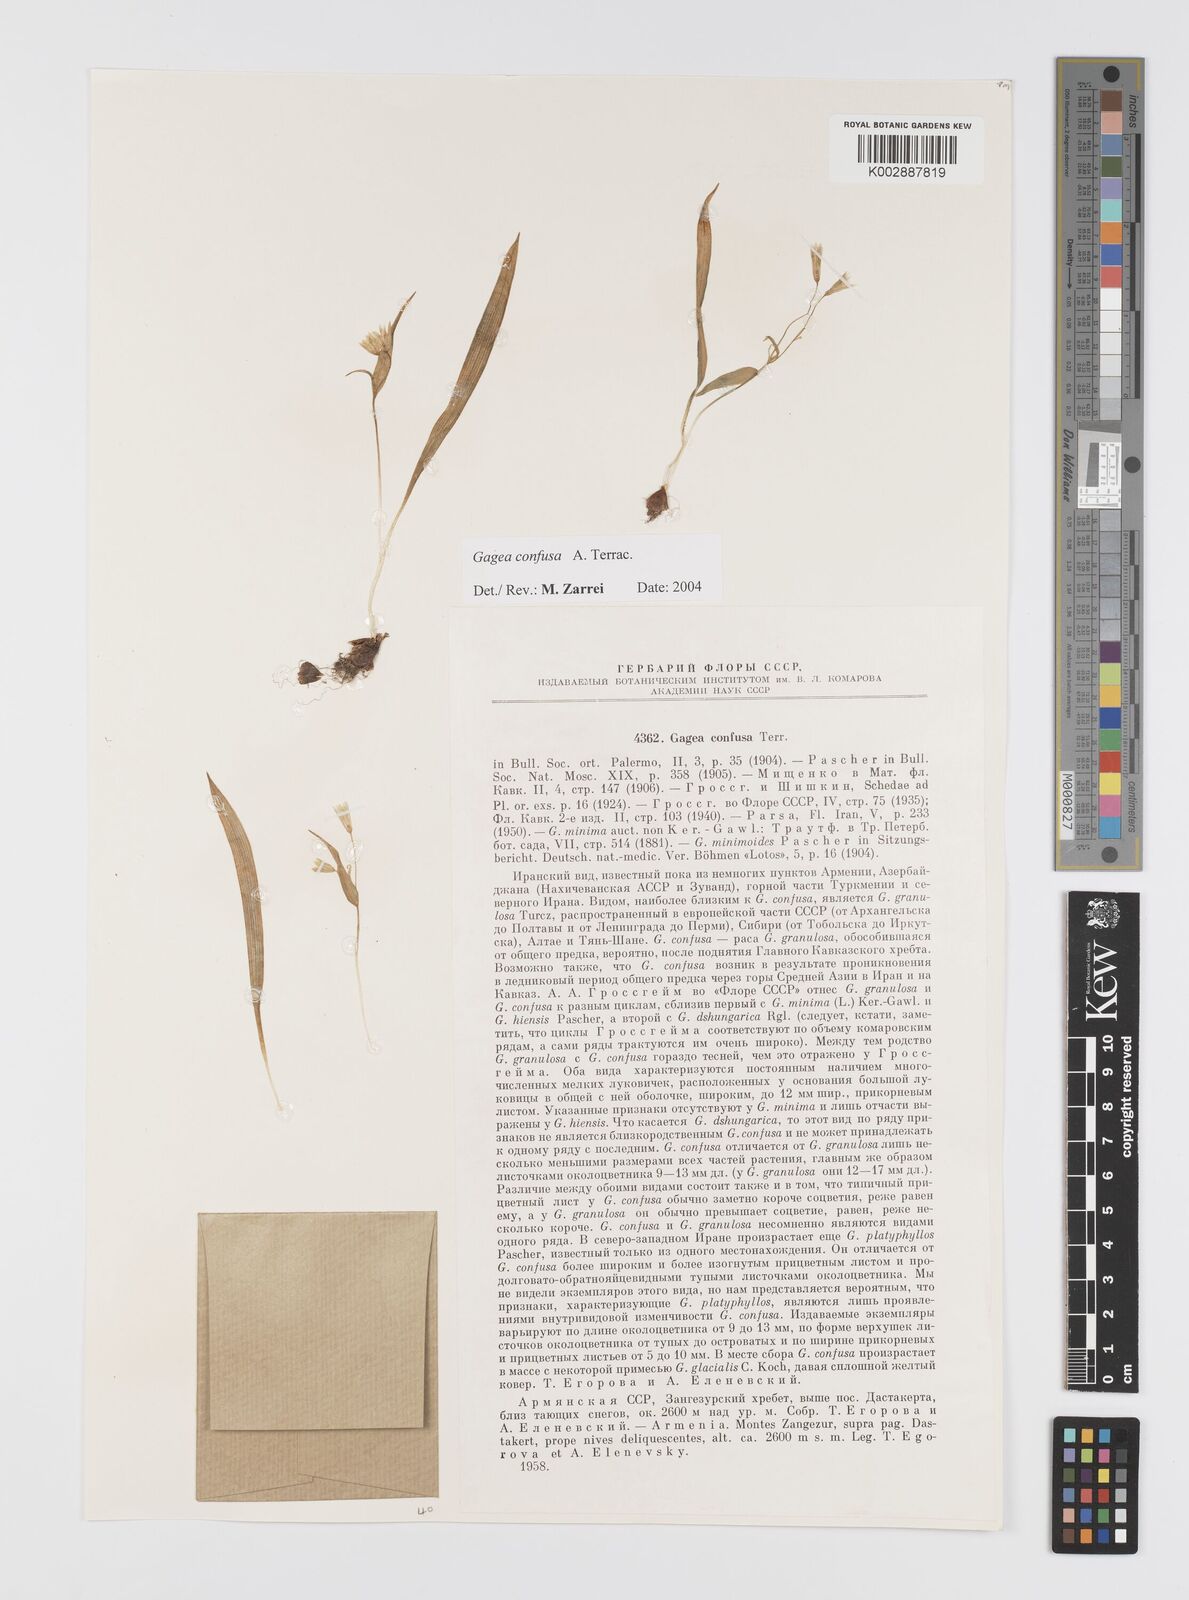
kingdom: Plantae
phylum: Tracheophyta
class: Liliopsida
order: Liliales
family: Liliaceae
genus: Gagea
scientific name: Gagea confusa
